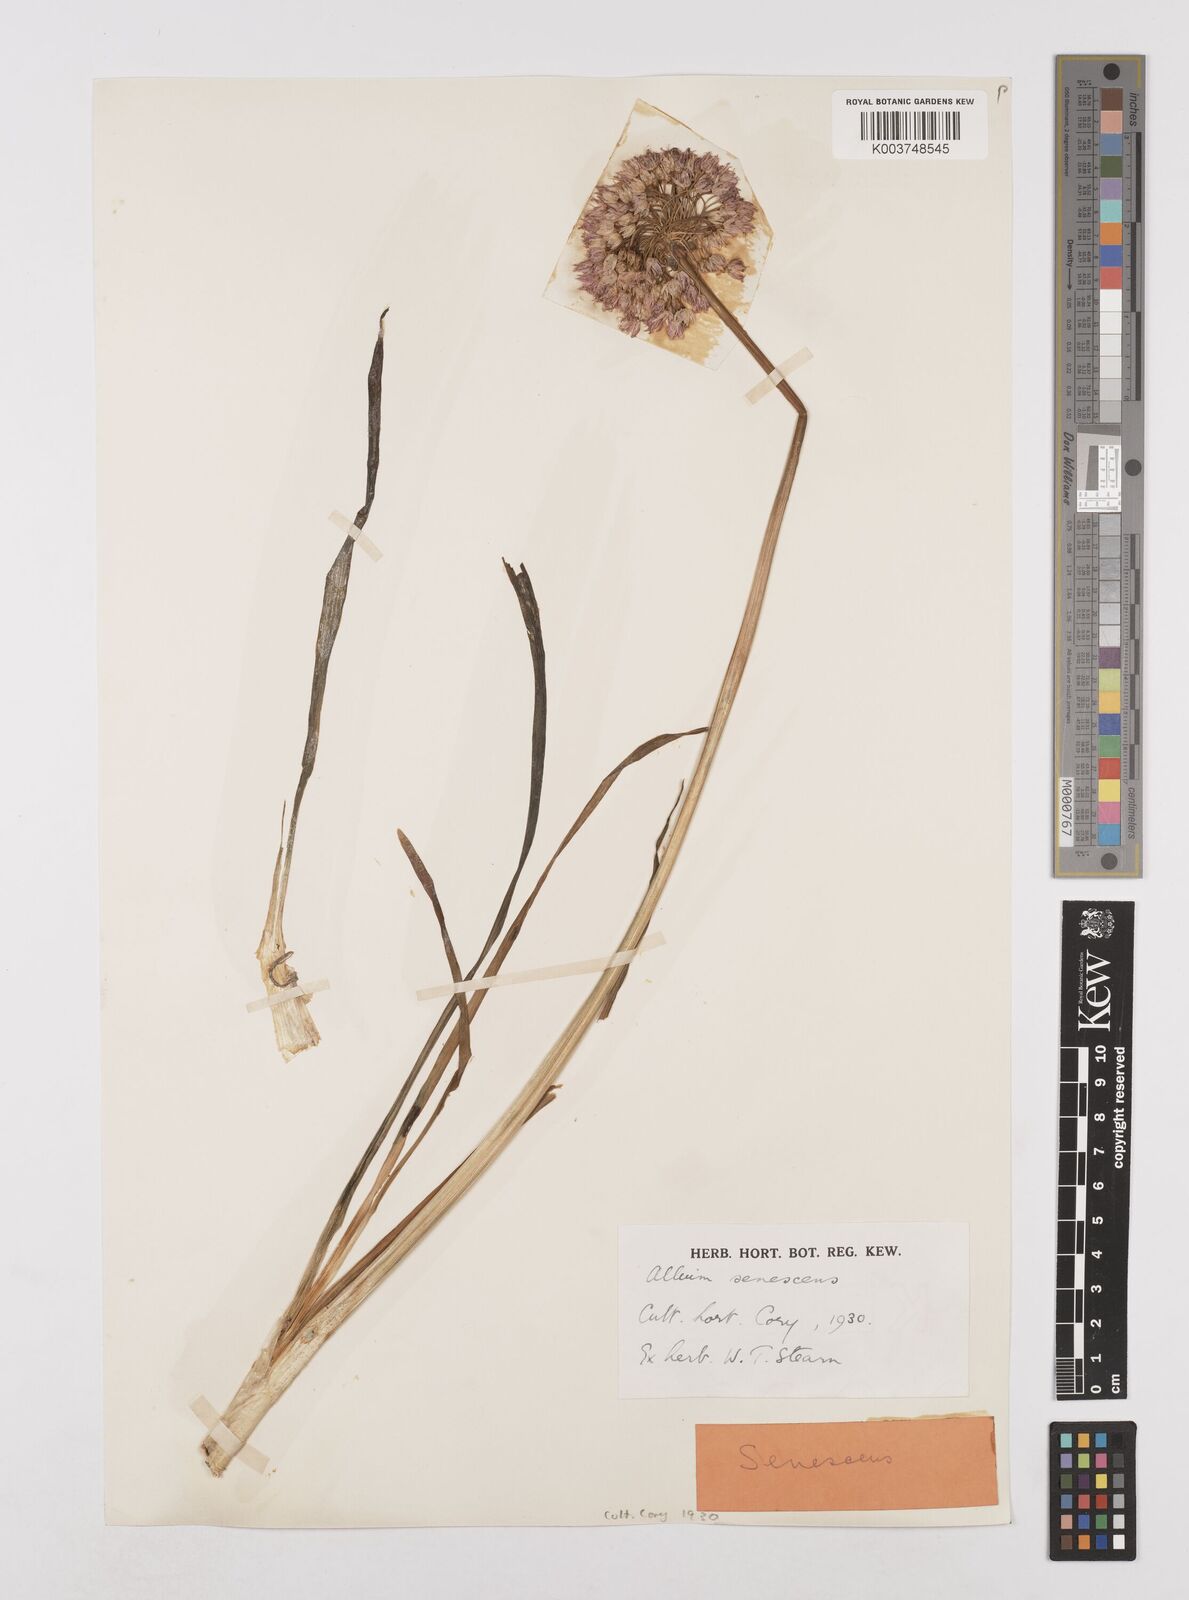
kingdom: Plantae
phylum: Tracheophyta
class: Liliopsida
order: Asparagales
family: Amaryllidaceae
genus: Allium
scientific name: Allium ericetorum
